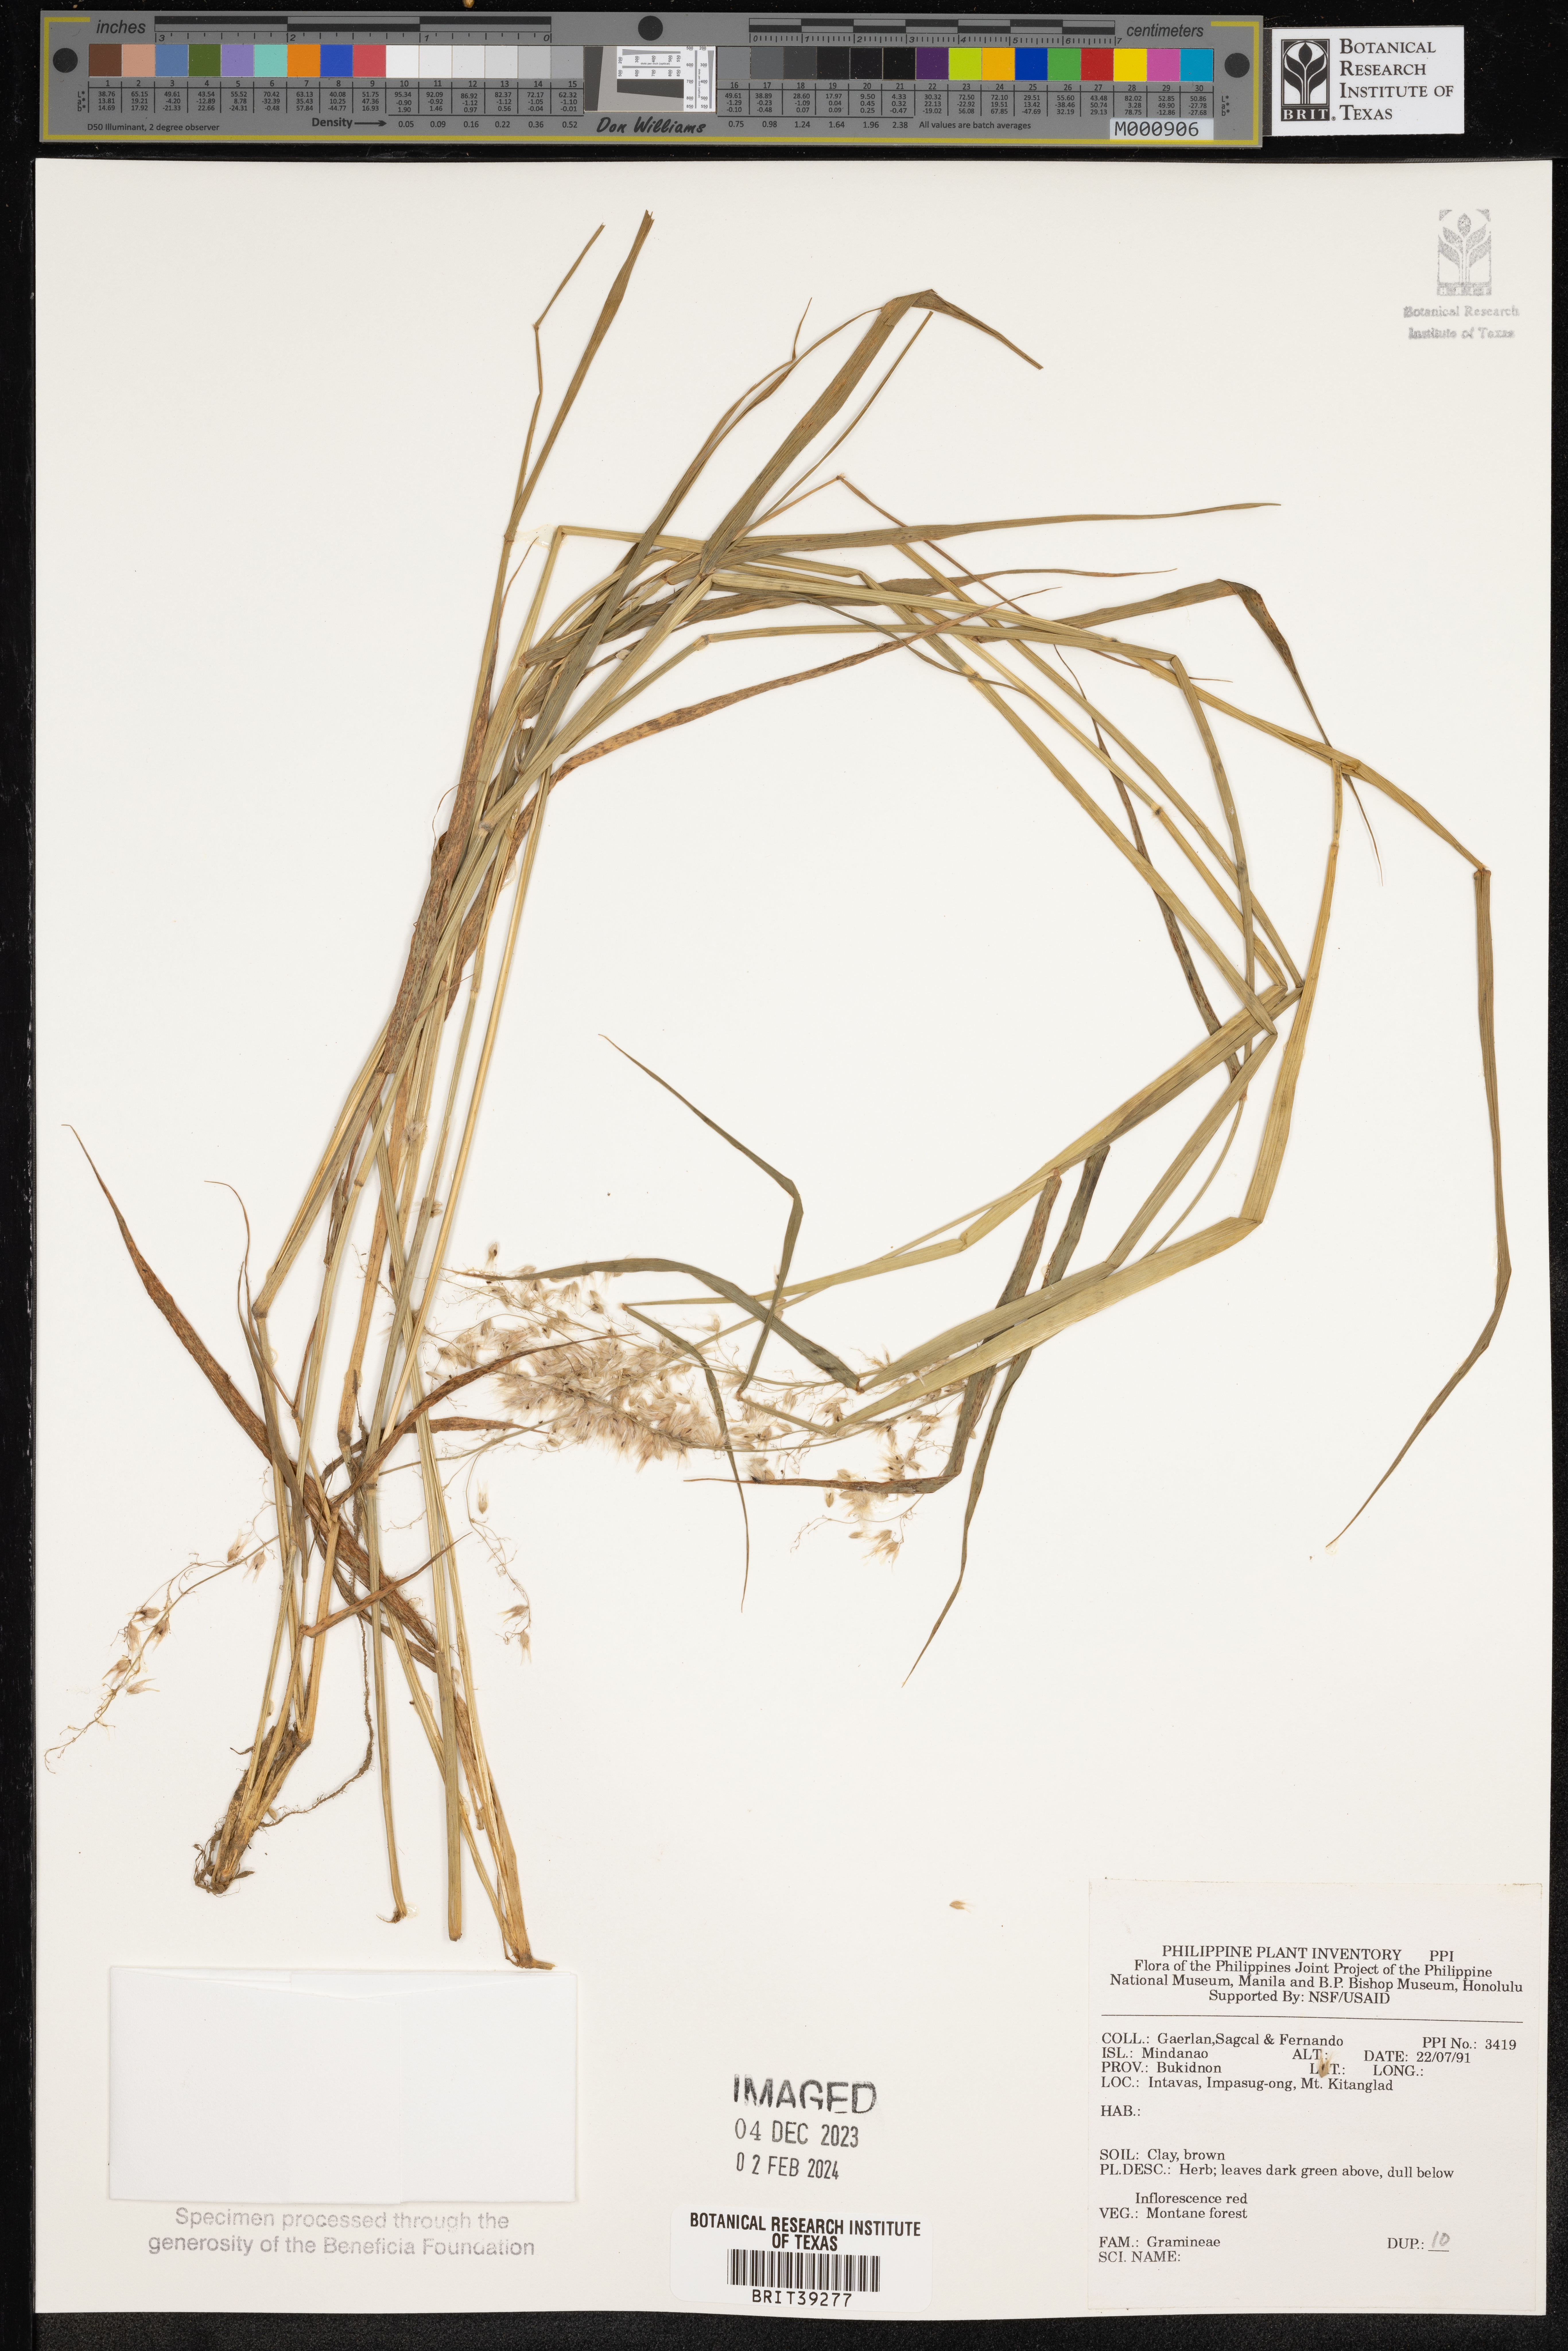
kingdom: Plantae
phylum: Tracheophyta
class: Liliopsida
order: Poales
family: Poaceae
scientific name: Poaceae
